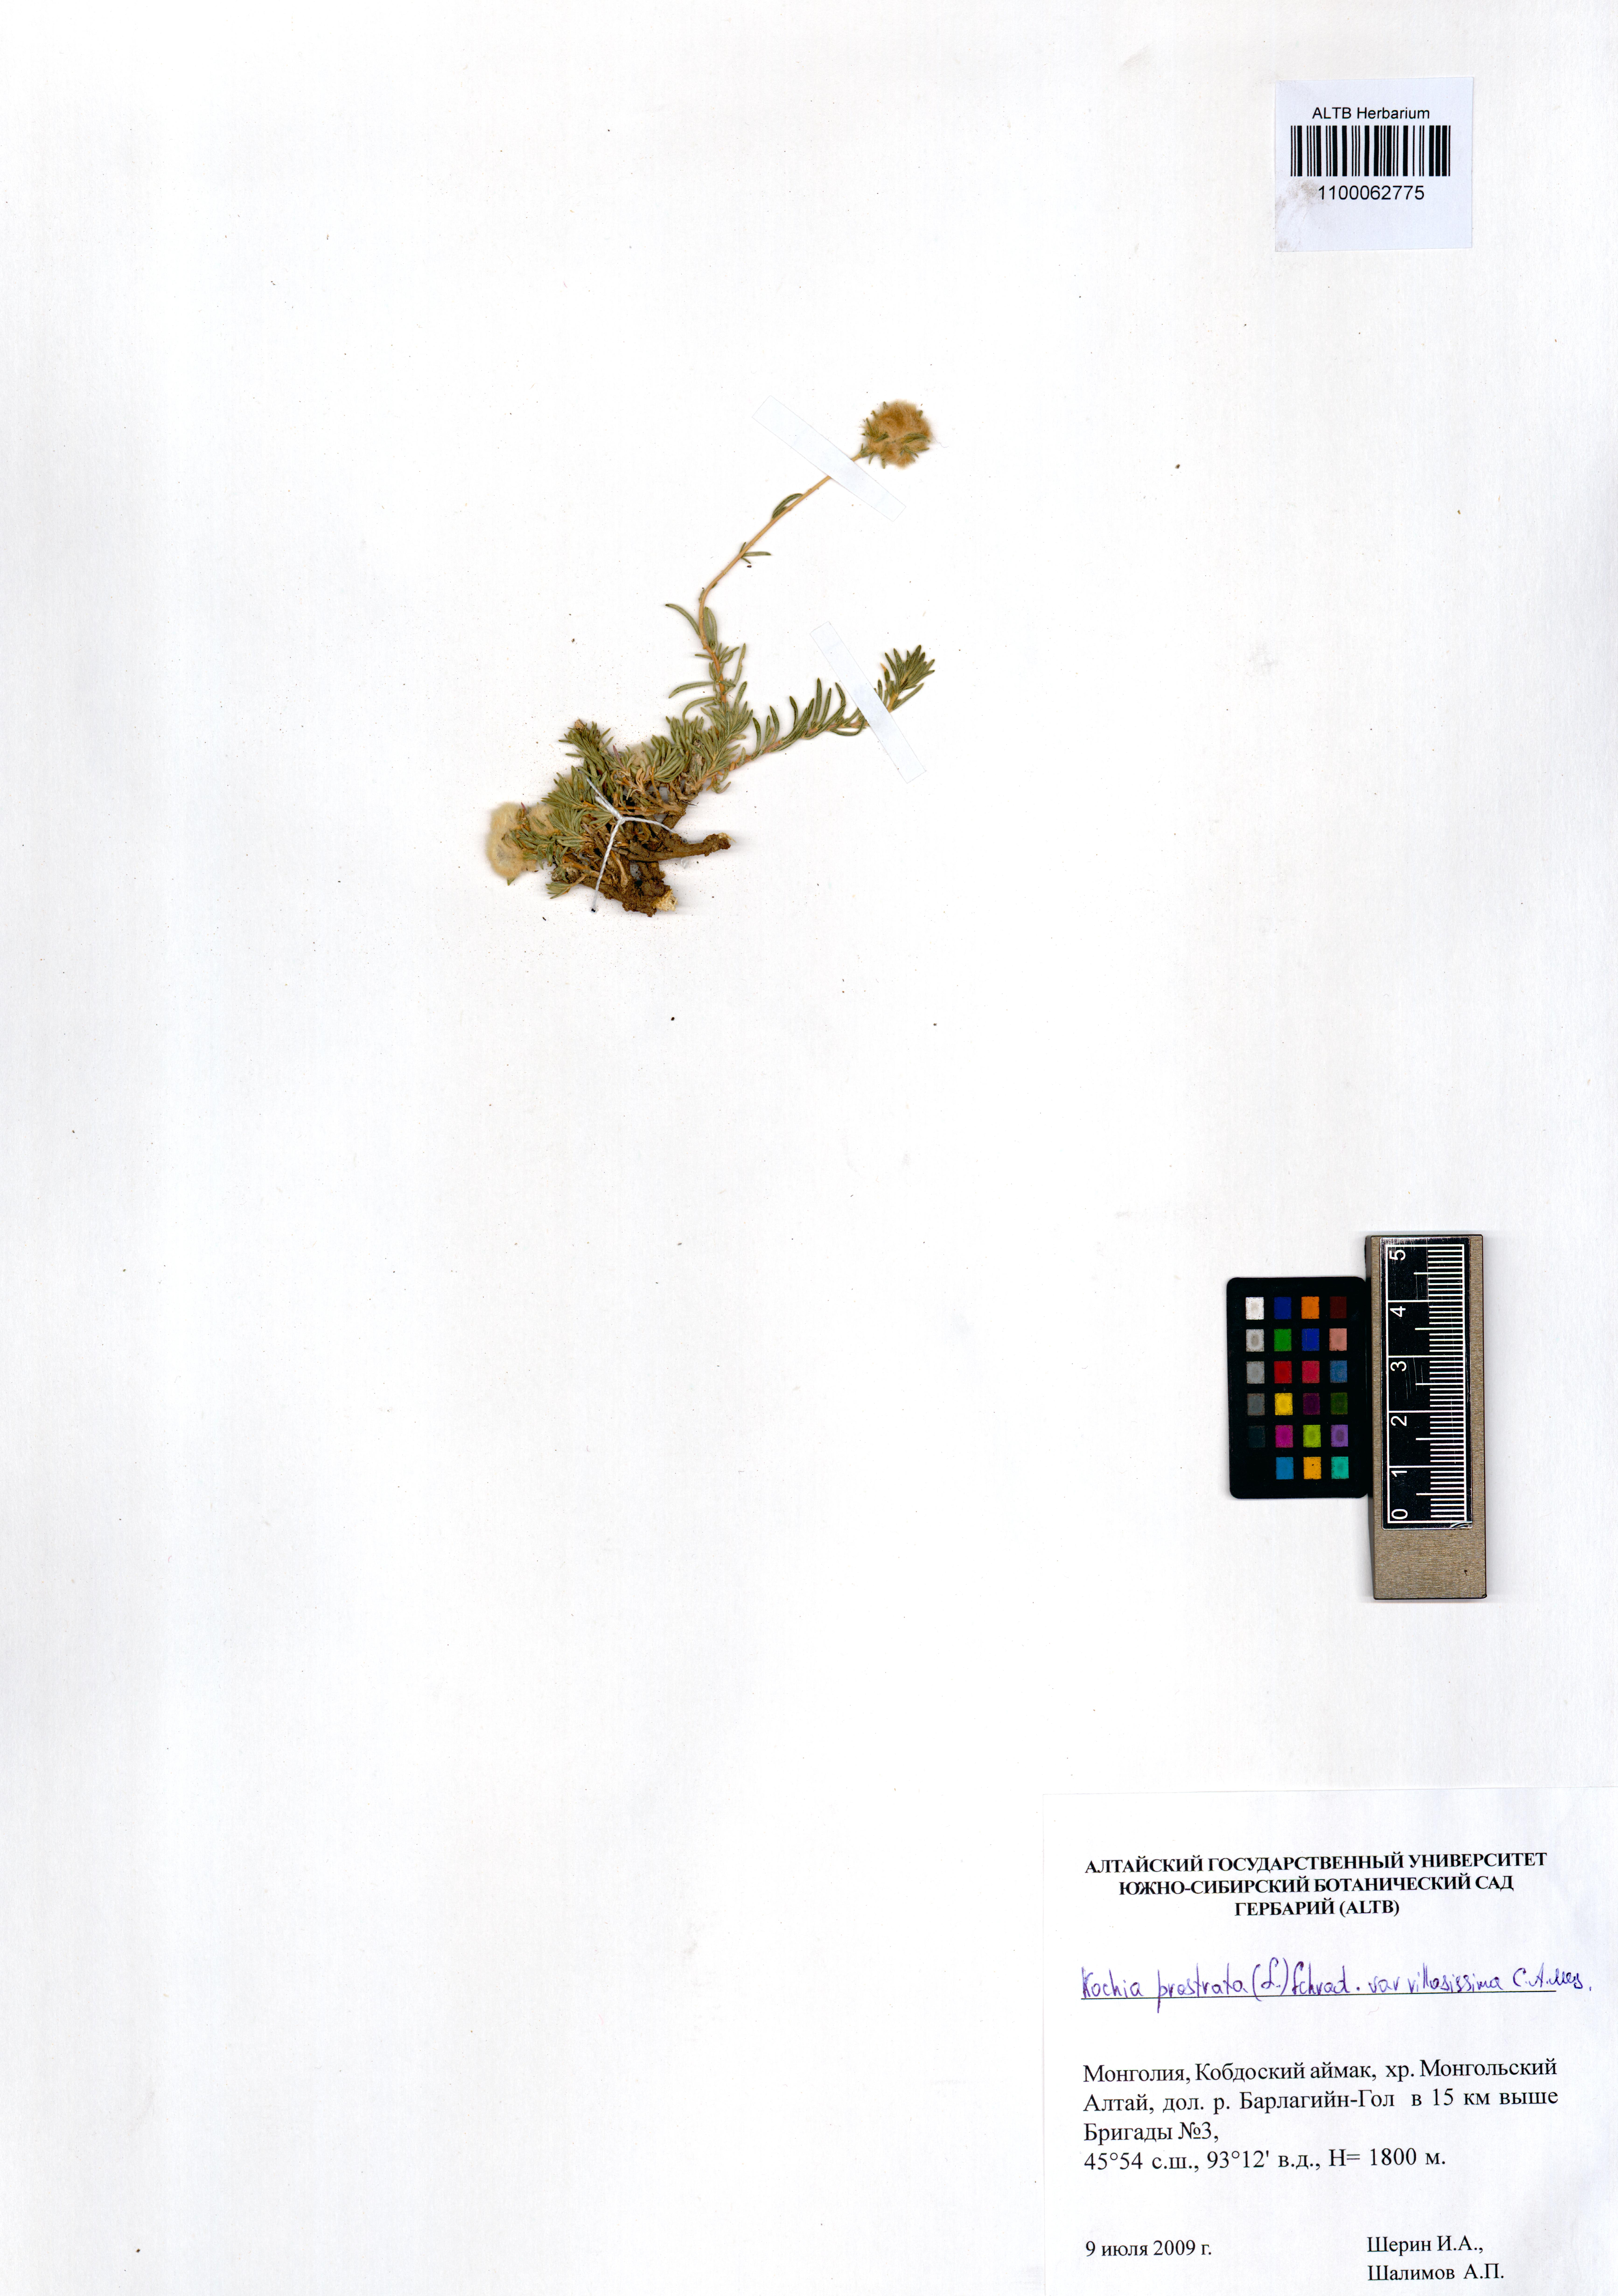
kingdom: Plantae
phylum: Tracheophyta
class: Magnoliopsida
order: Caryophyllales
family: Amaranthaceae
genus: Bassia
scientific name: Bassia villosissima
